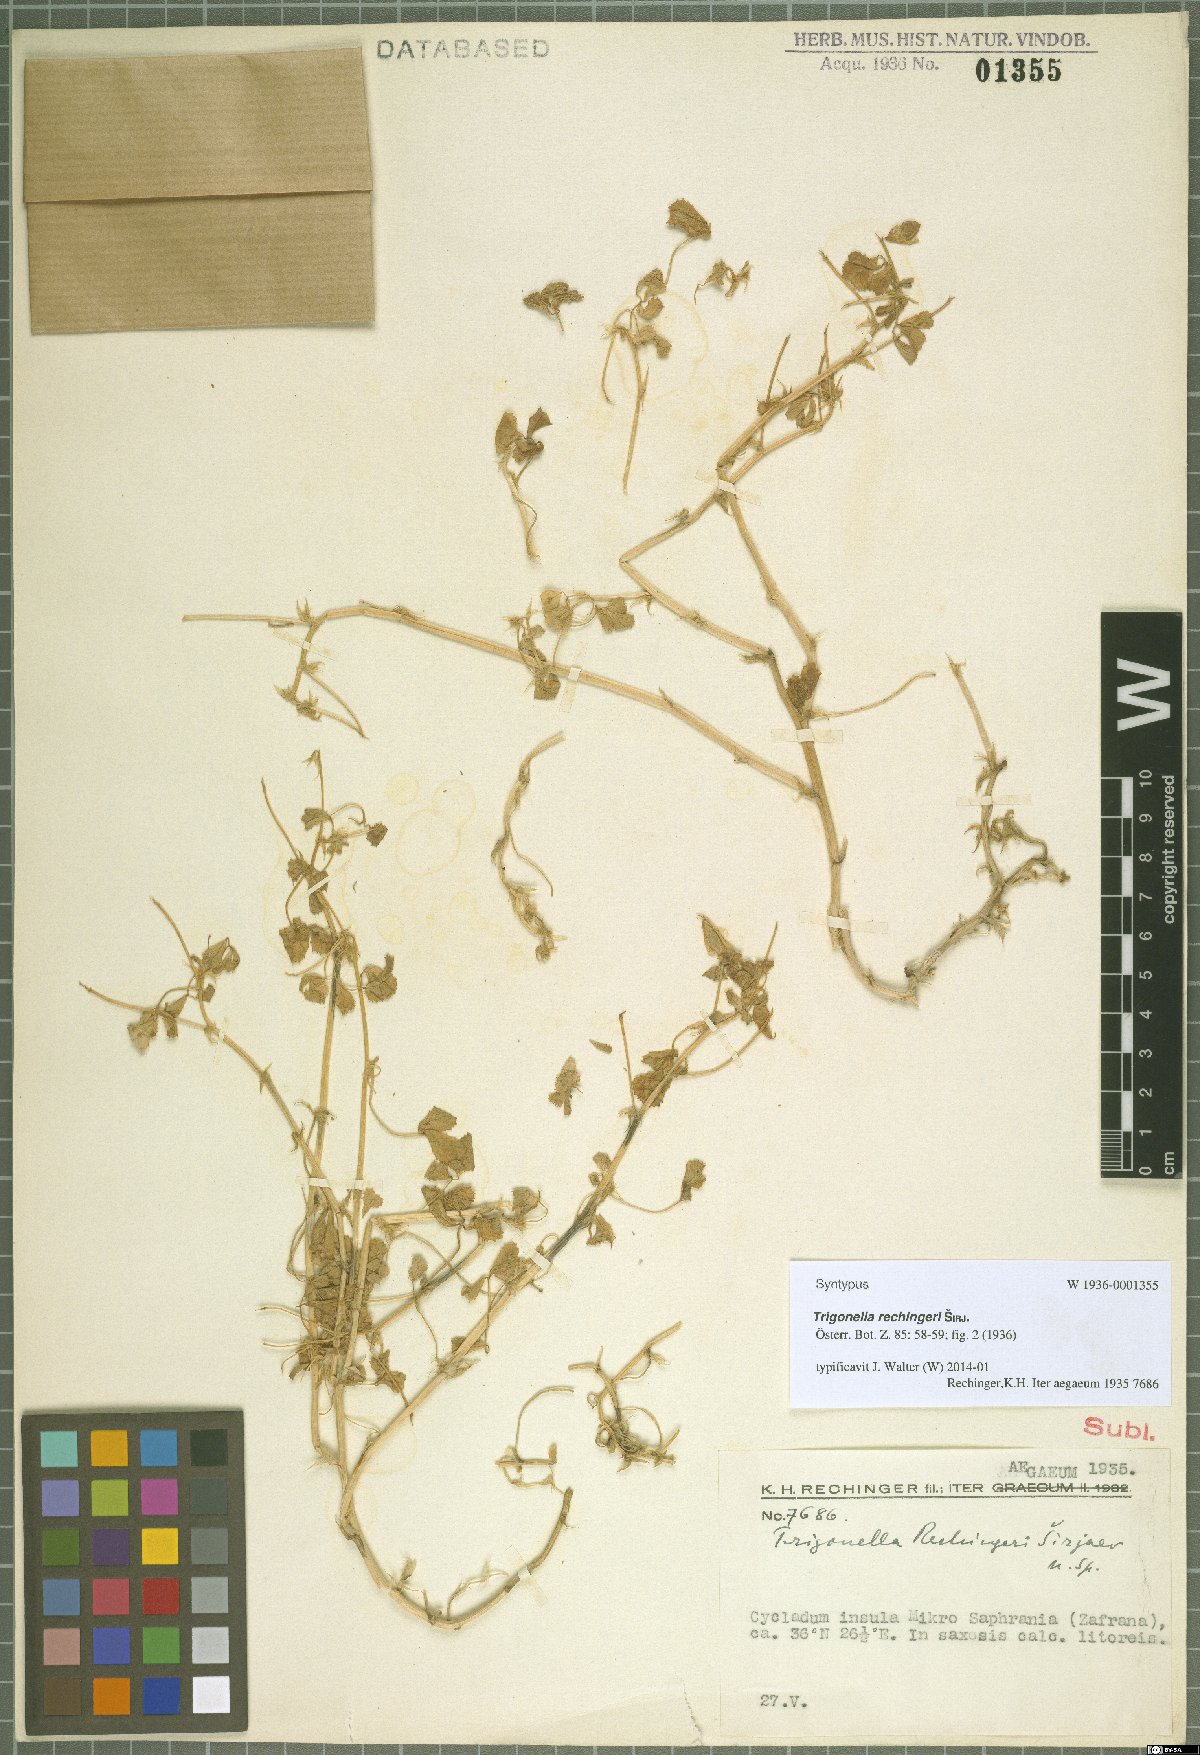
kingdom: Plantae
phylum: Tracheophyta
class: Magnoliopsida
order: Fabales
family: Fabaceae
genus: Trigonella
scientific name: Trigonella rechingeri
